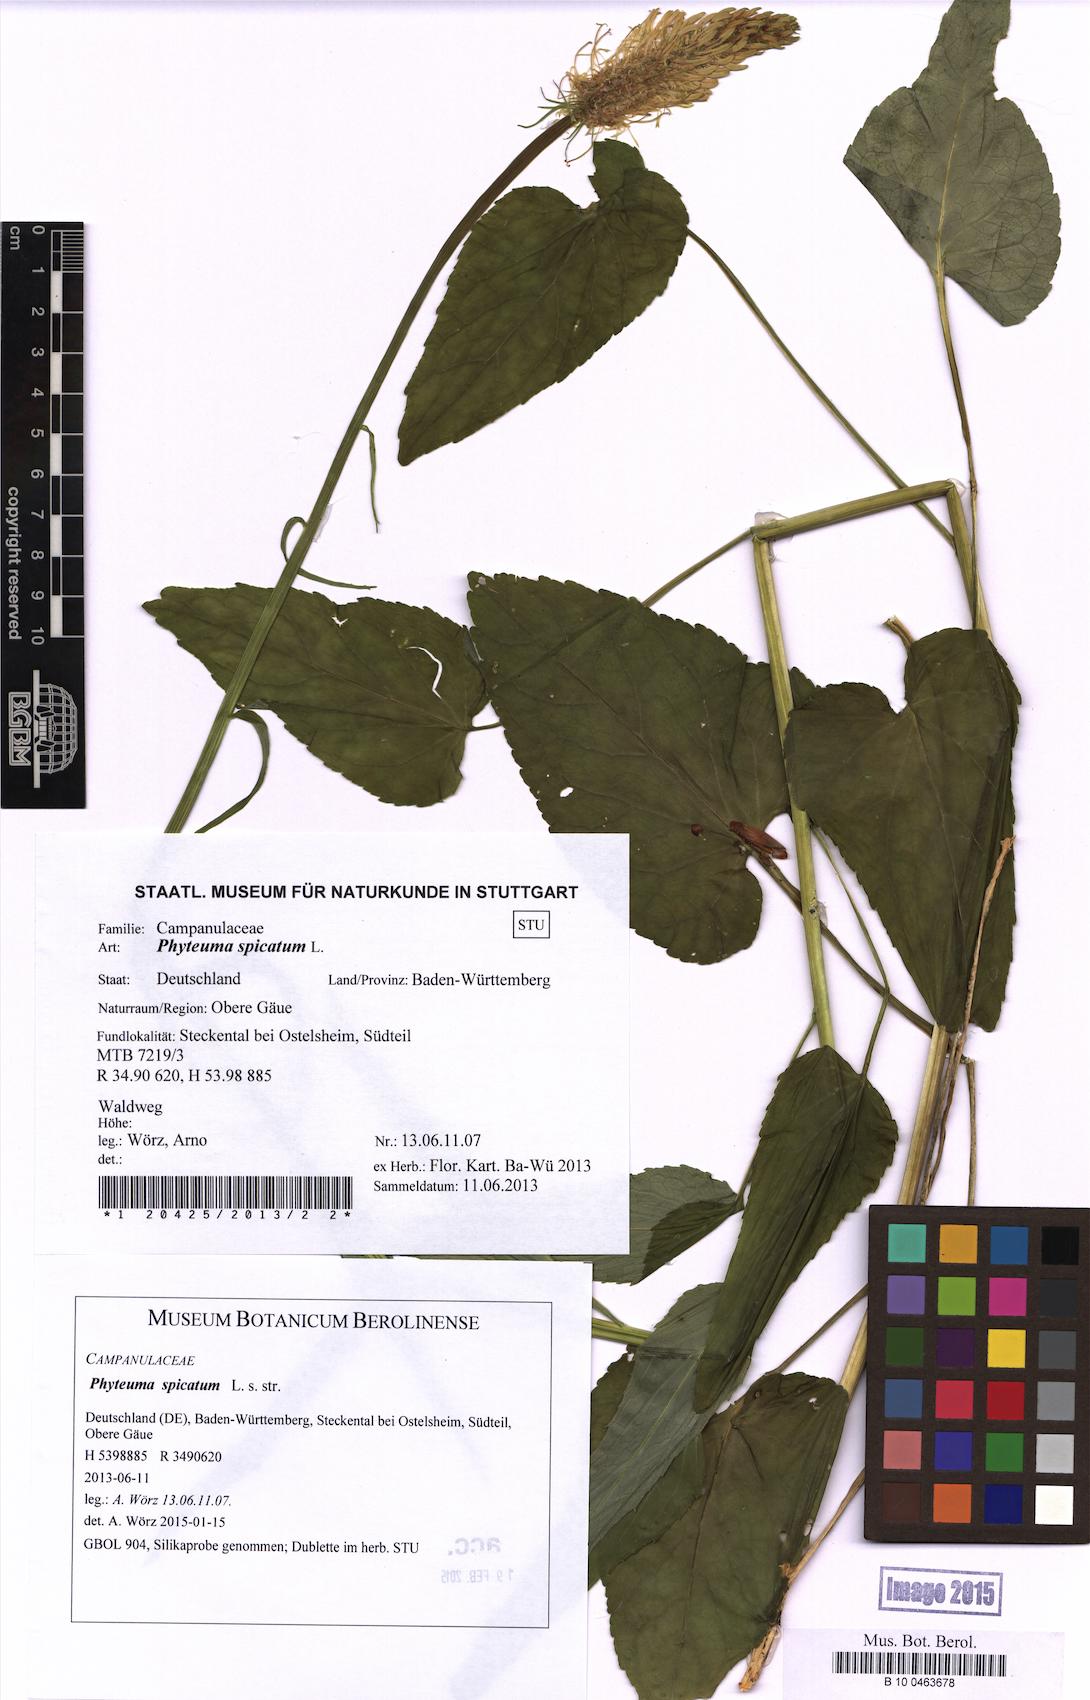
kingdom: Plantae
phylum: Tracheophyta
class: Magnoliopsida
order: Asterales
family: Campanulaceae
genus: Phyteuma
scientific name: Phyteuma spicatum
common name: Spiked rampion
